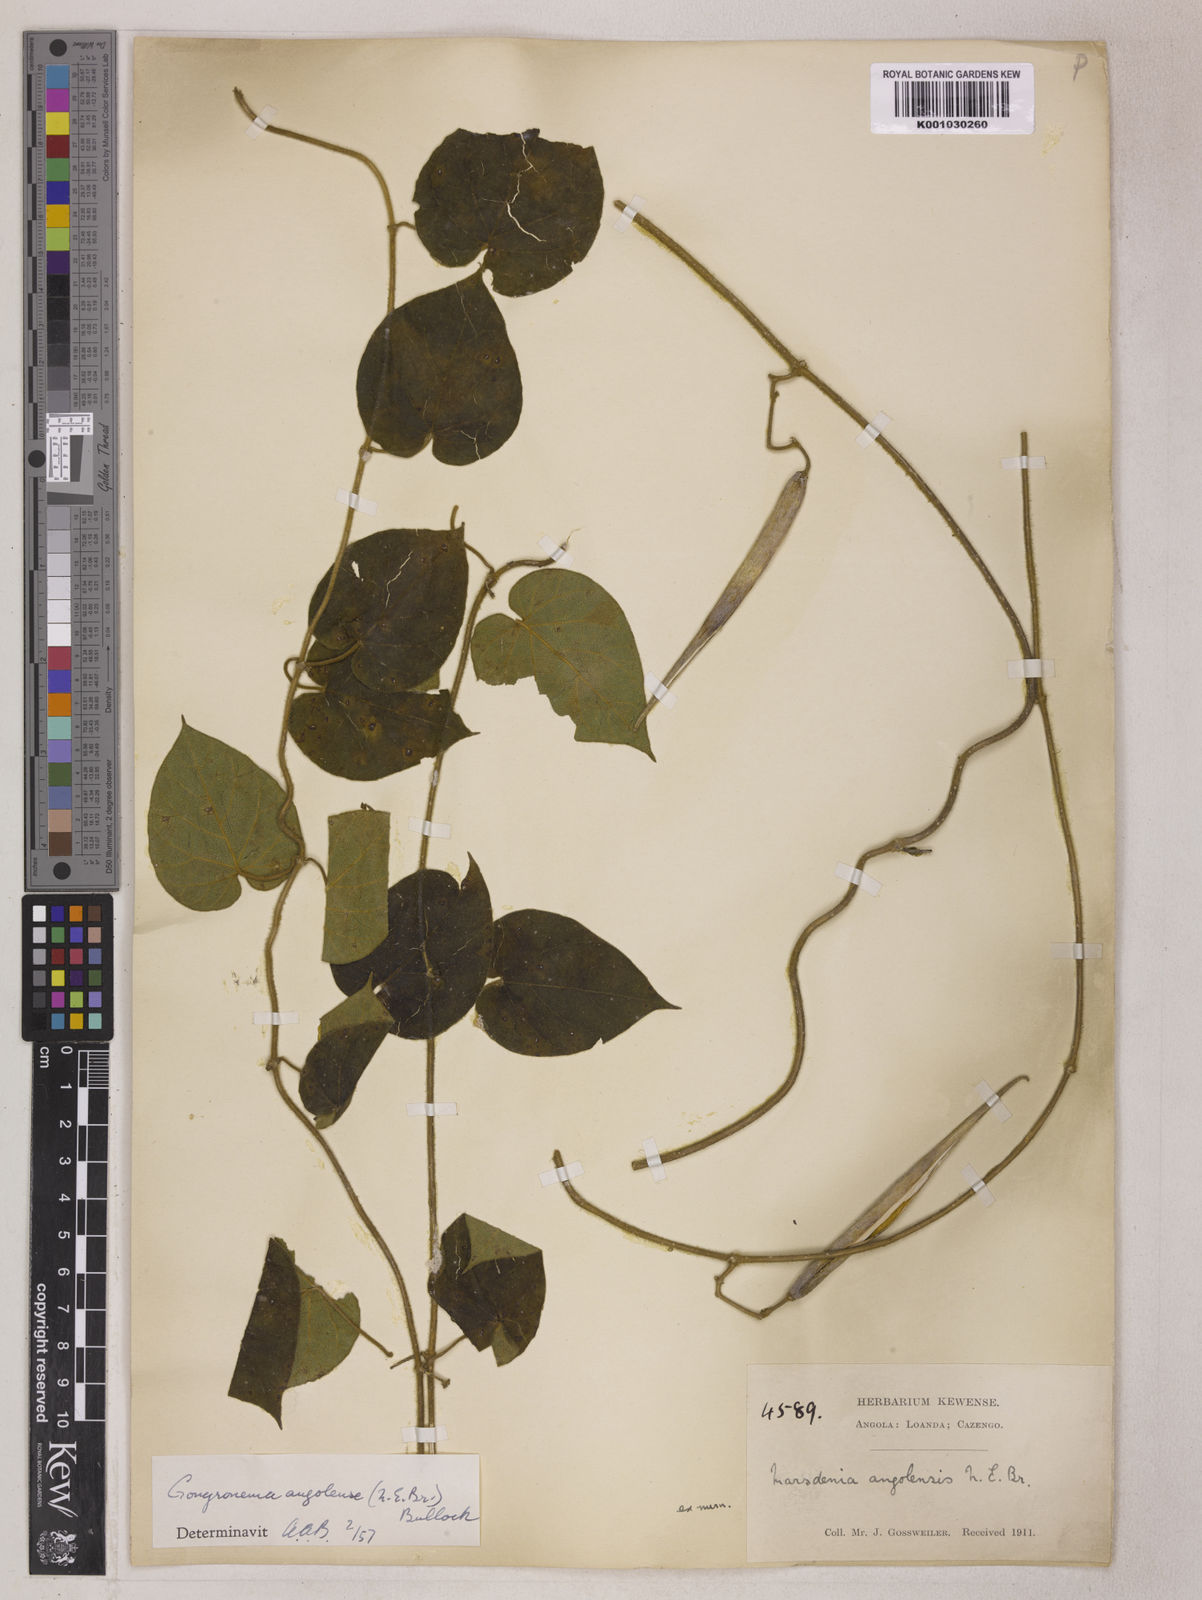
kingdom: Plantae
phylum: Tracheophyta
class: Magnoliopsida
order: Gentianales
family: Apocynaceae
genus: Gongronemopsis
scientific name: Gongronemopsis angolensis
